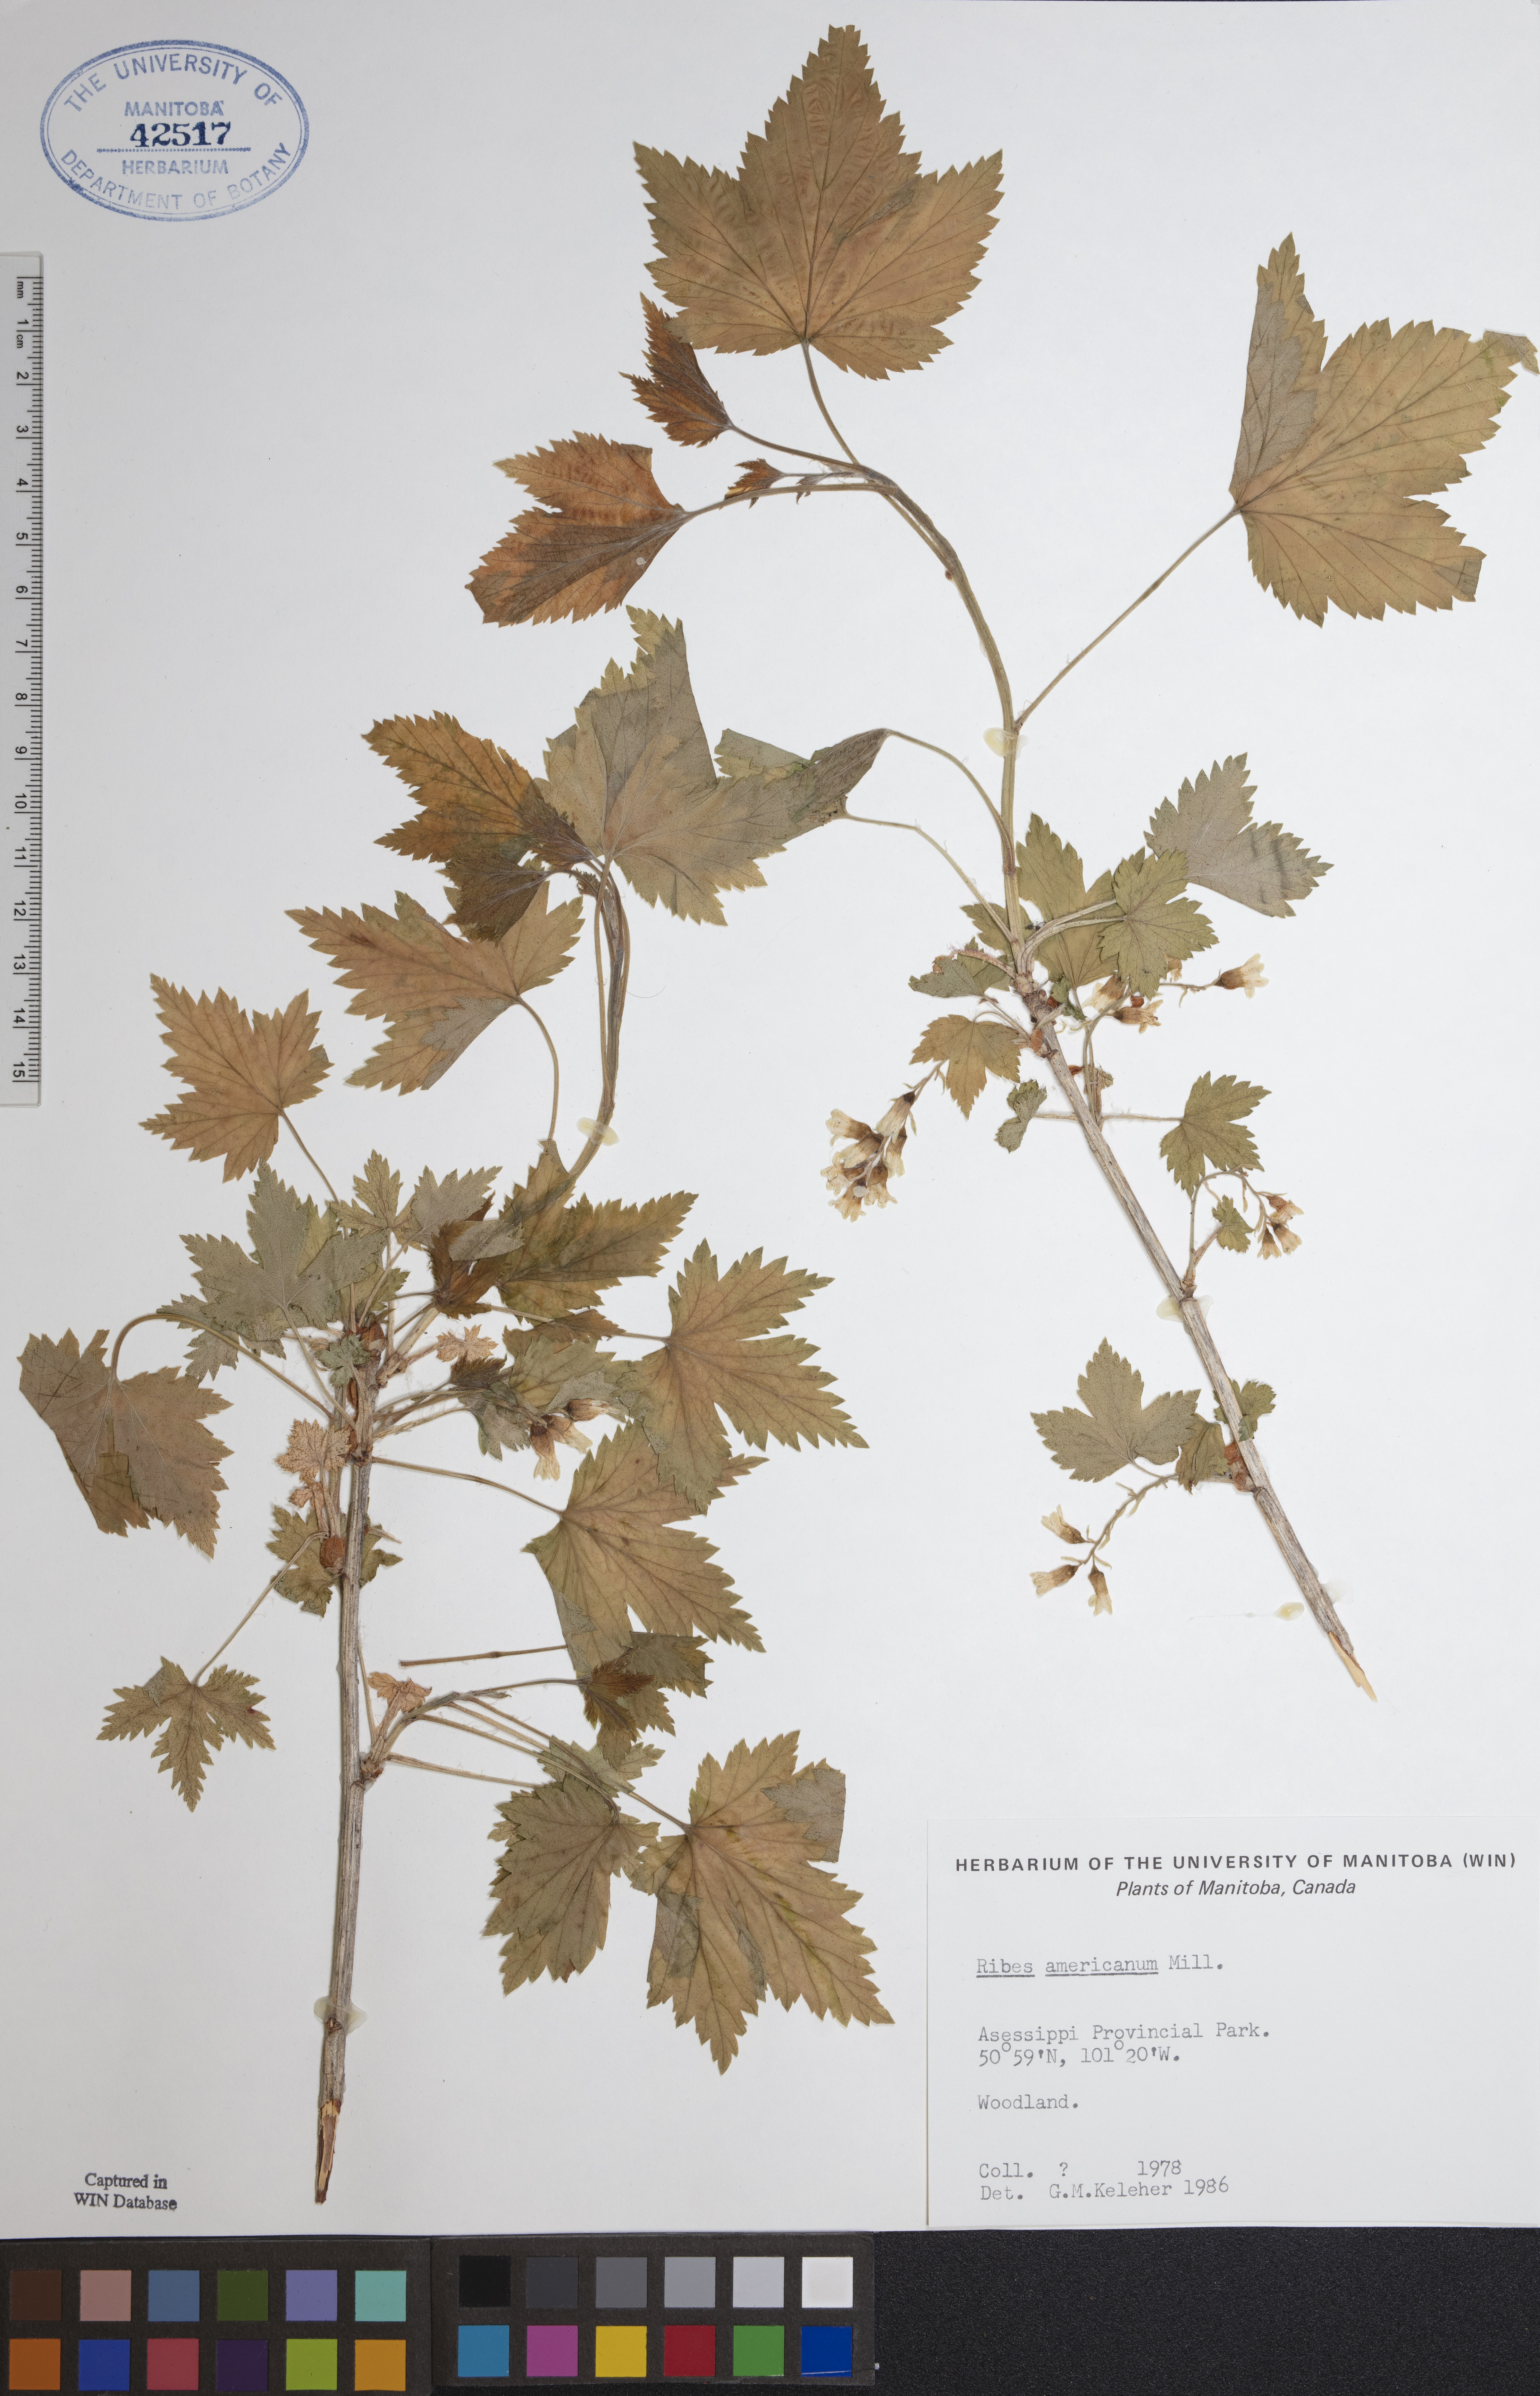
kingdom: Plantae
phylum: Tracheophyta
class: Magnoliopsida
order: Saxifragales
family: Grossulariaceae
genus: Ribes
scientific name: Ribes americanum
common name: American black currant
